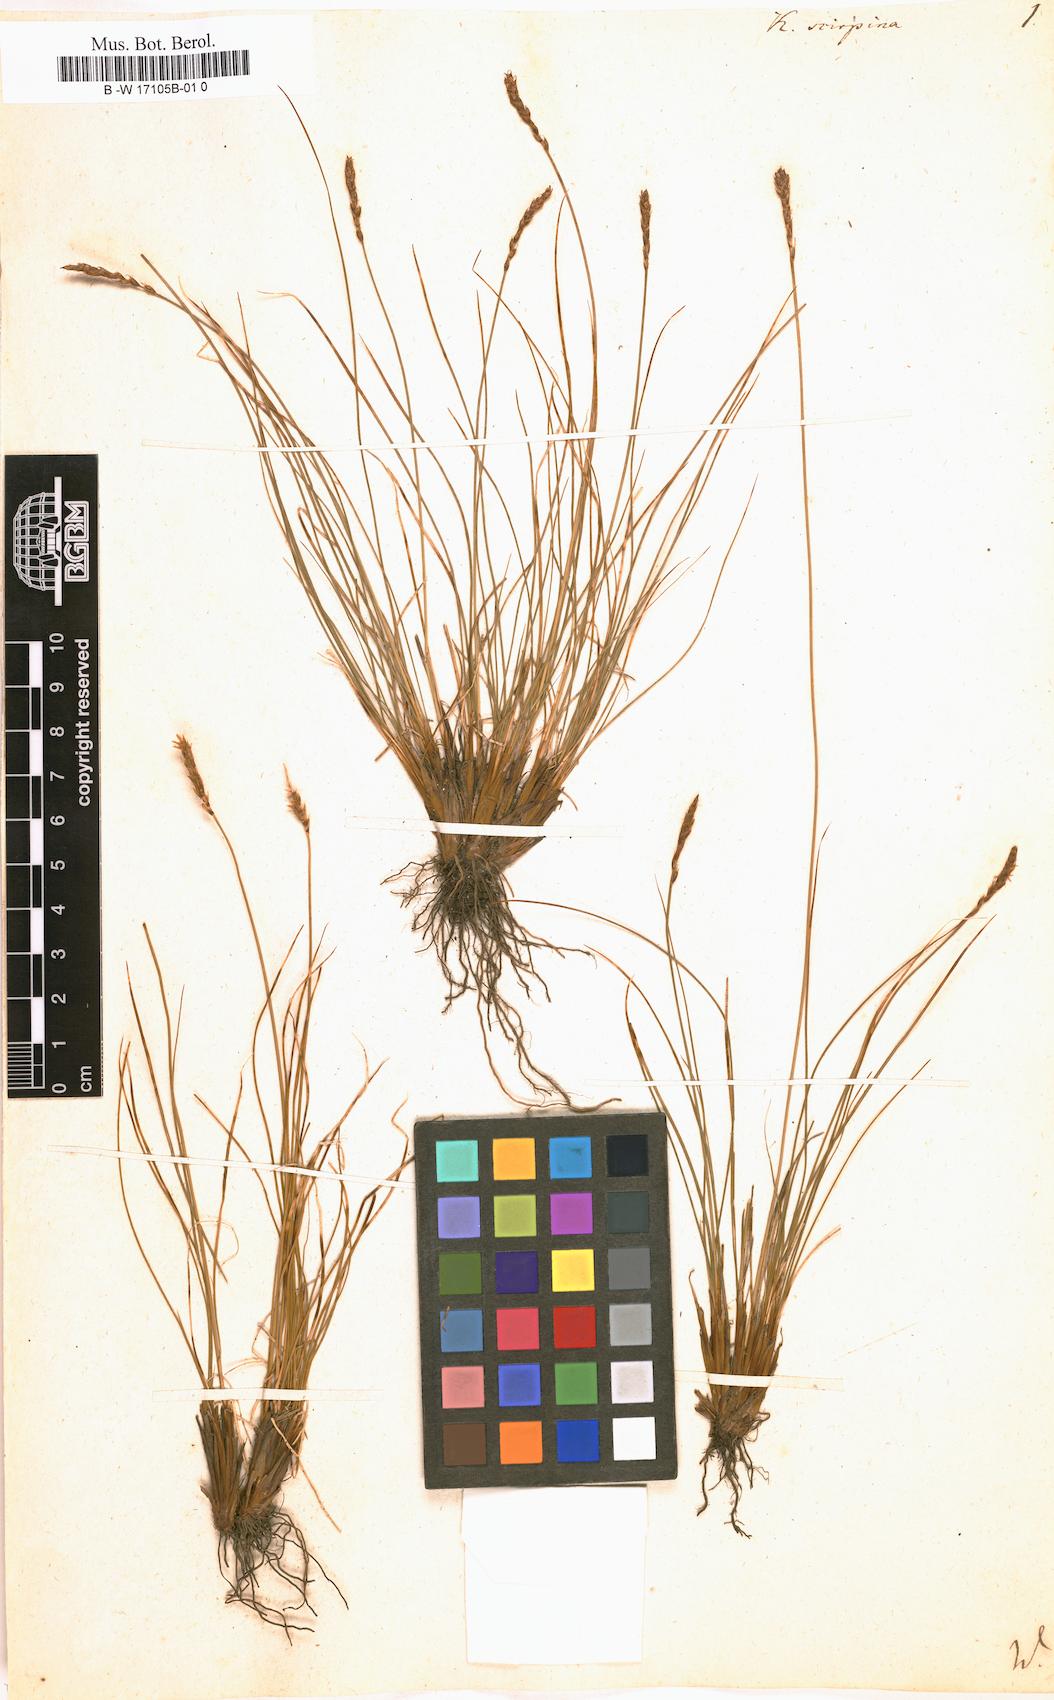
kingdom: Plantae
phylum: Tracheophyta
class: Liliopsida
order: Poales
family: Cyperaceae
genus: Carex
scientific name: Carex myosuroides
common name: Bellard's bog sedge
